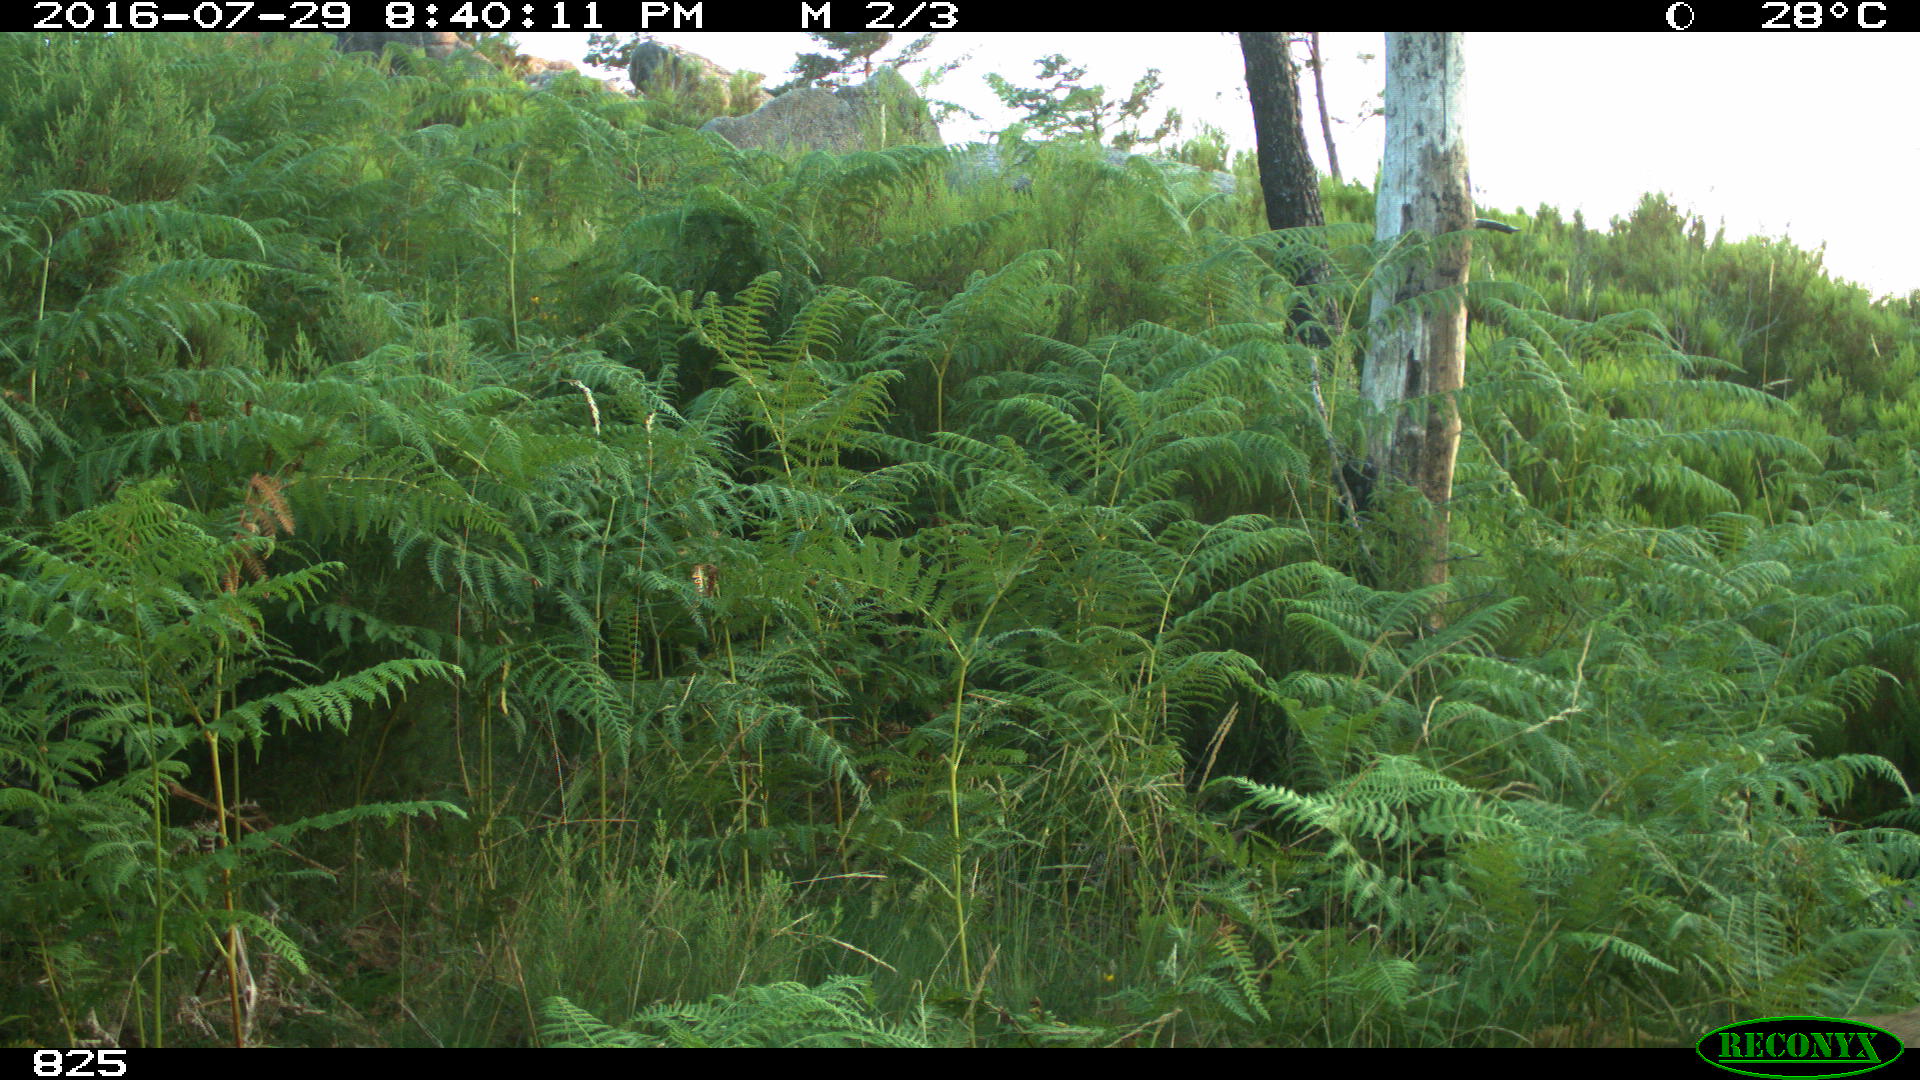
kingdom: Animalia
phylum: Chordata
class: Mammalia
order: Artiodactyla
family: Cervidae
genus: Capreolus
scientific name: Capreolus capreolus
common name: Western roe deer
